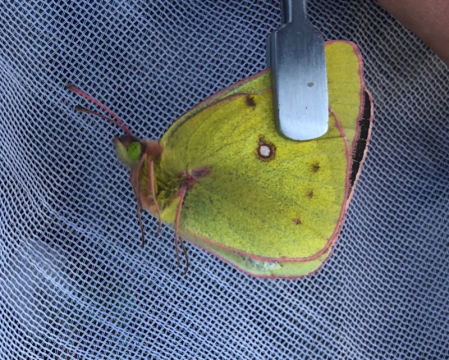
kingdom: Animalia
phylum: Arthropoda
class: Insecta
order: Lepidoptera
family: Pieridae
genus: Colias
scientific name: Colias philodice
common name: Clouded Sulphur
